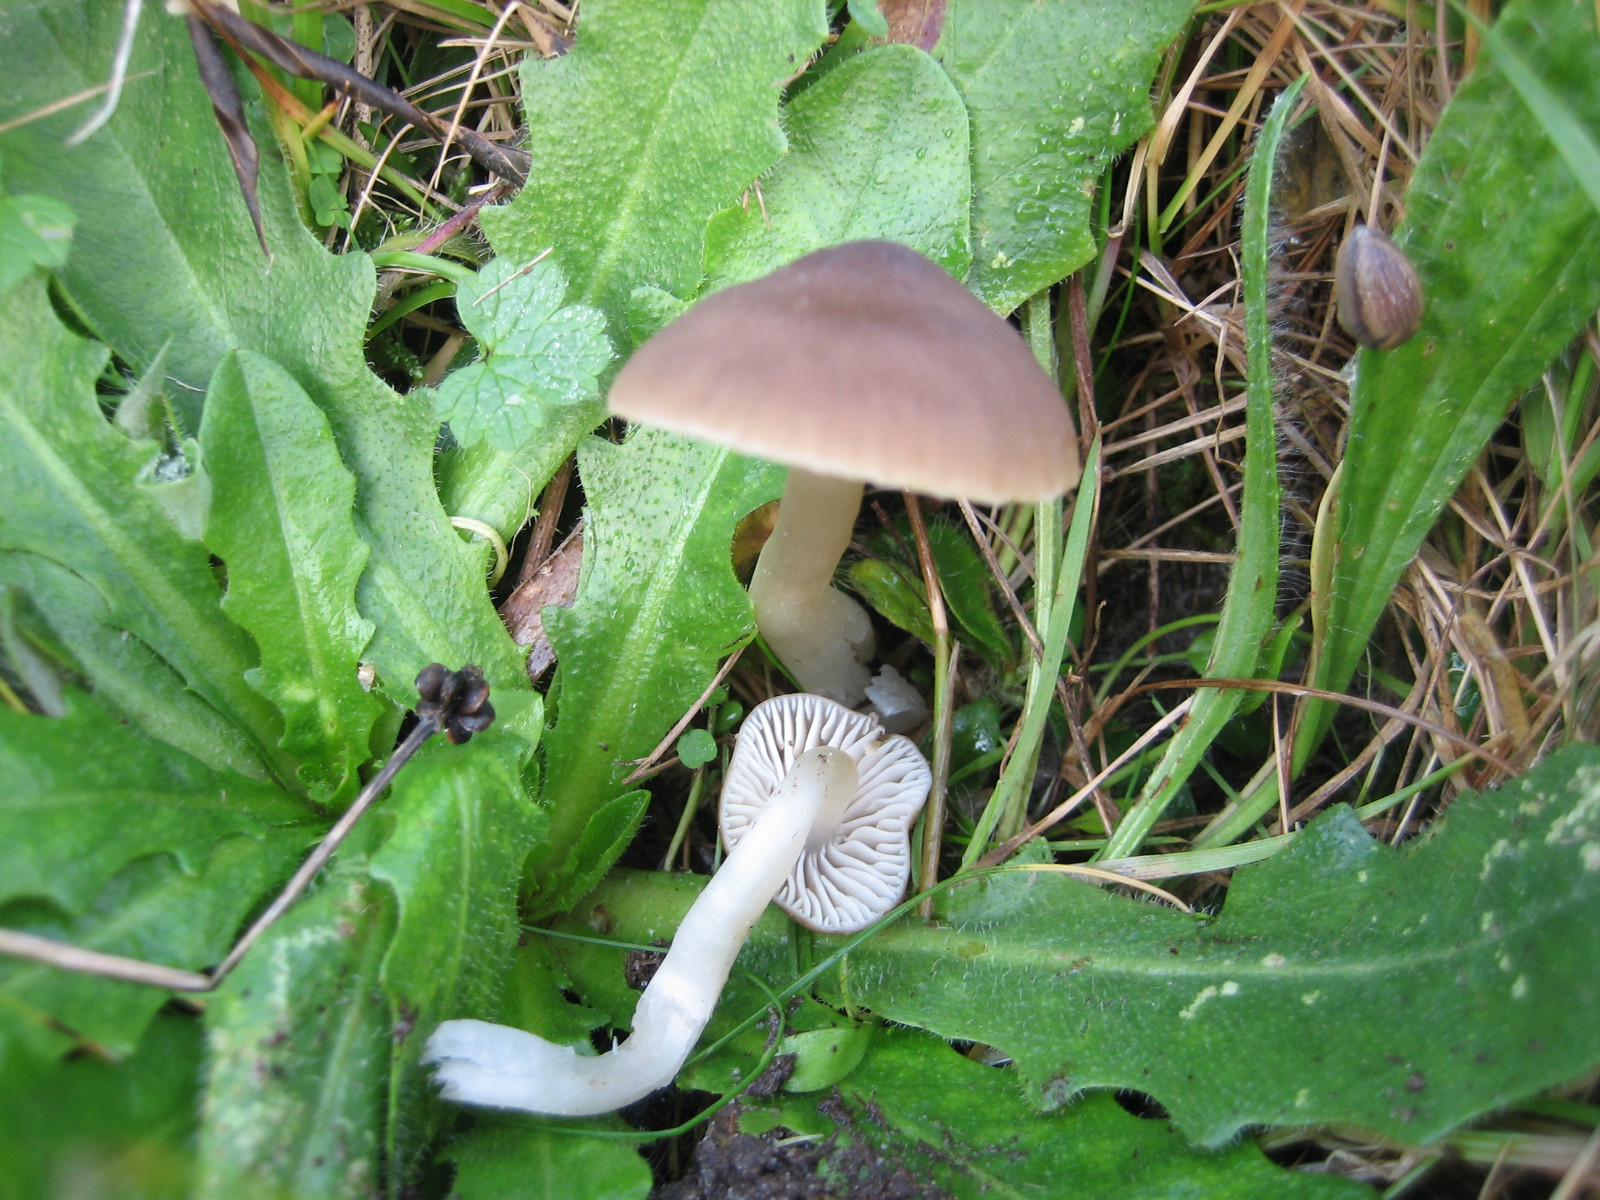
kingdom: Fungi
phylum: Basidiomycota
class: Agaricomycetes
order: Agaricales
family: Hygrophoraceae
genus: Neohygrocybe
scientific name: Neohygrocybe nitrata
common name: stinkende vokshat
